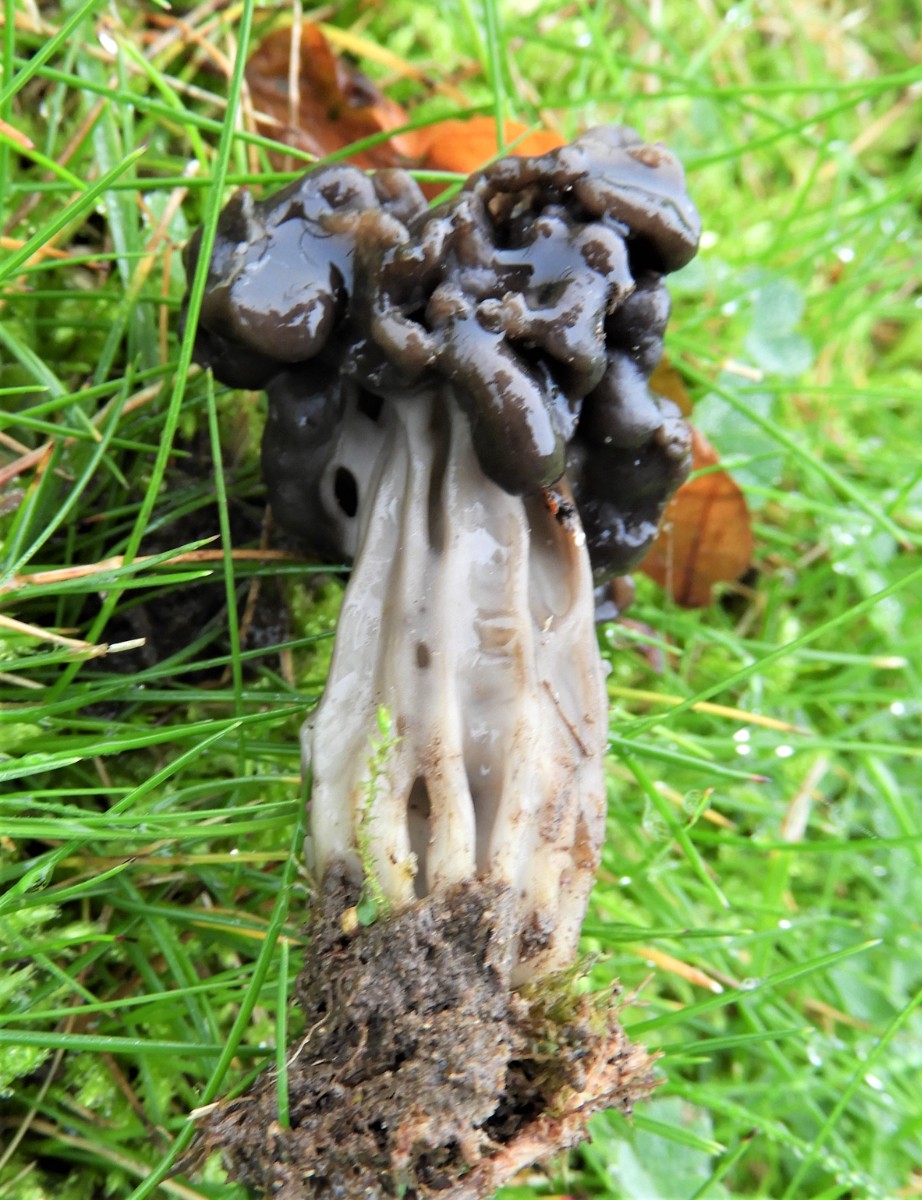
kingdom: Fungi
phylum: Ascomycota
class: Pezizomycetes
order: Pezizales
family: Helvellaceae
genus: Helvella
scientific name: Helvella lacunosa
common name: grubet foldhat
